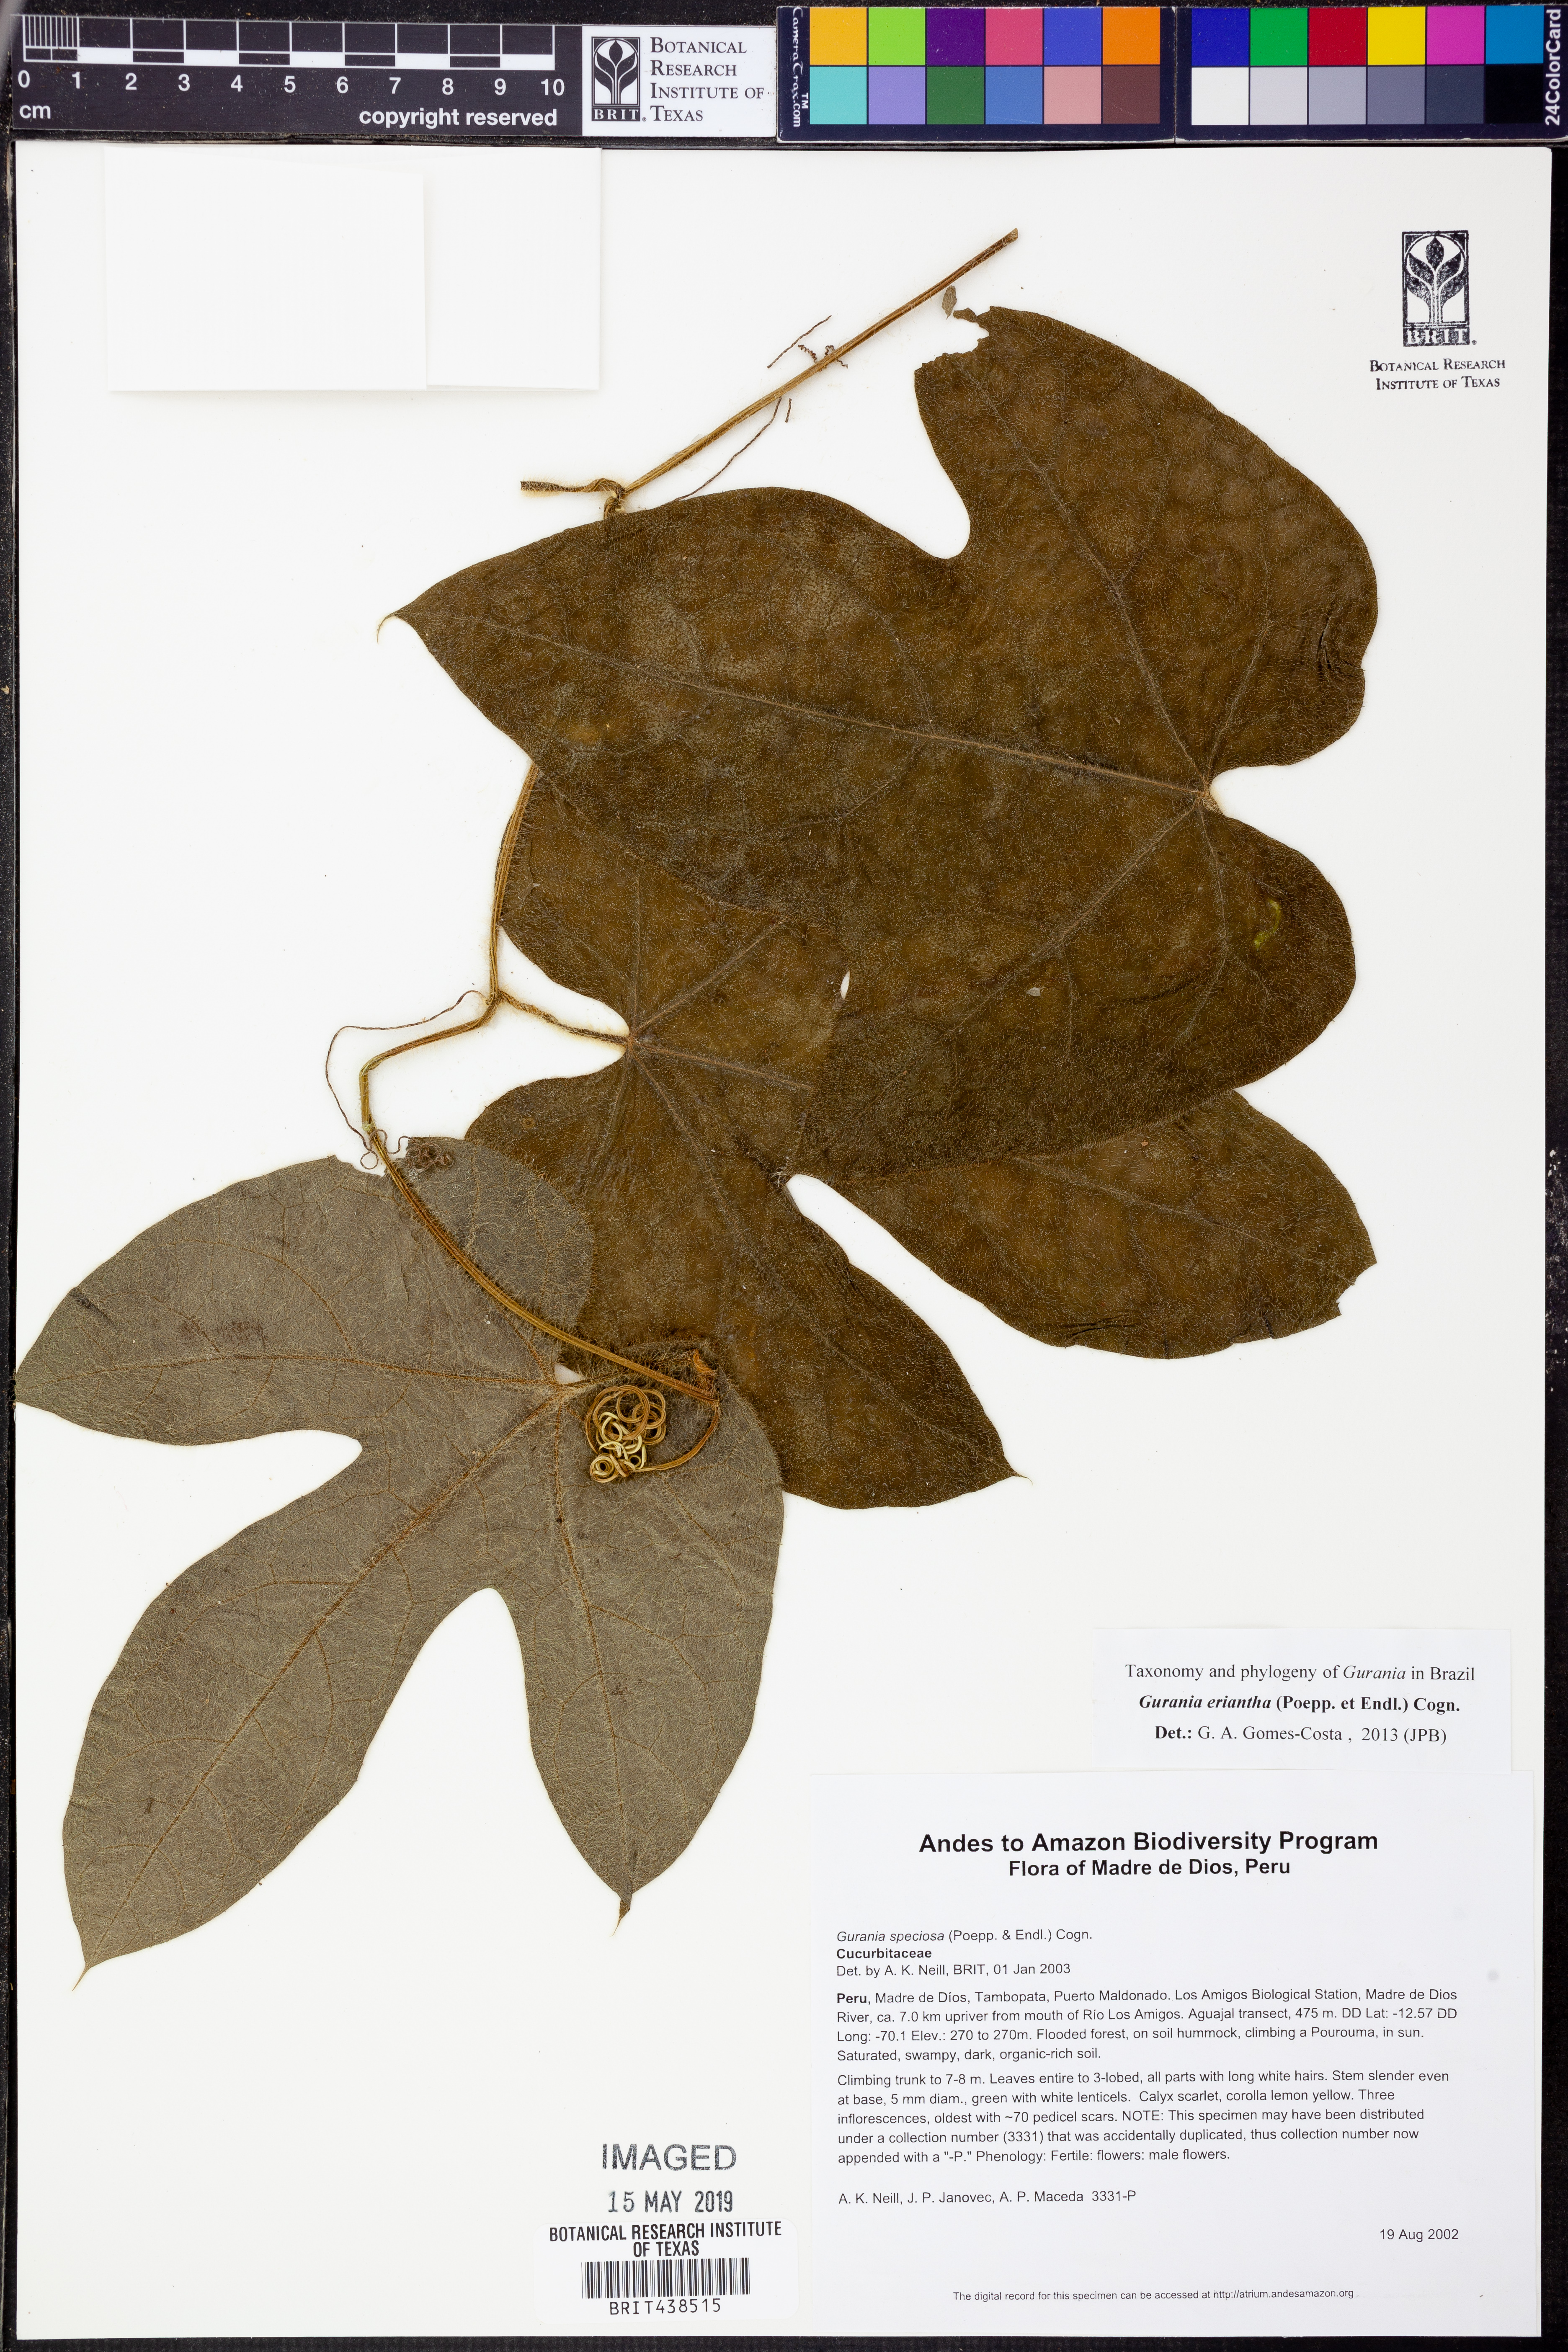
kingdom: Plantae
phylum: Tracheophyta
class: Magnoliopsida
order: Cucurbitales
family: Cucurbitaceae
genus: Gurania
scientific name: Gurania
